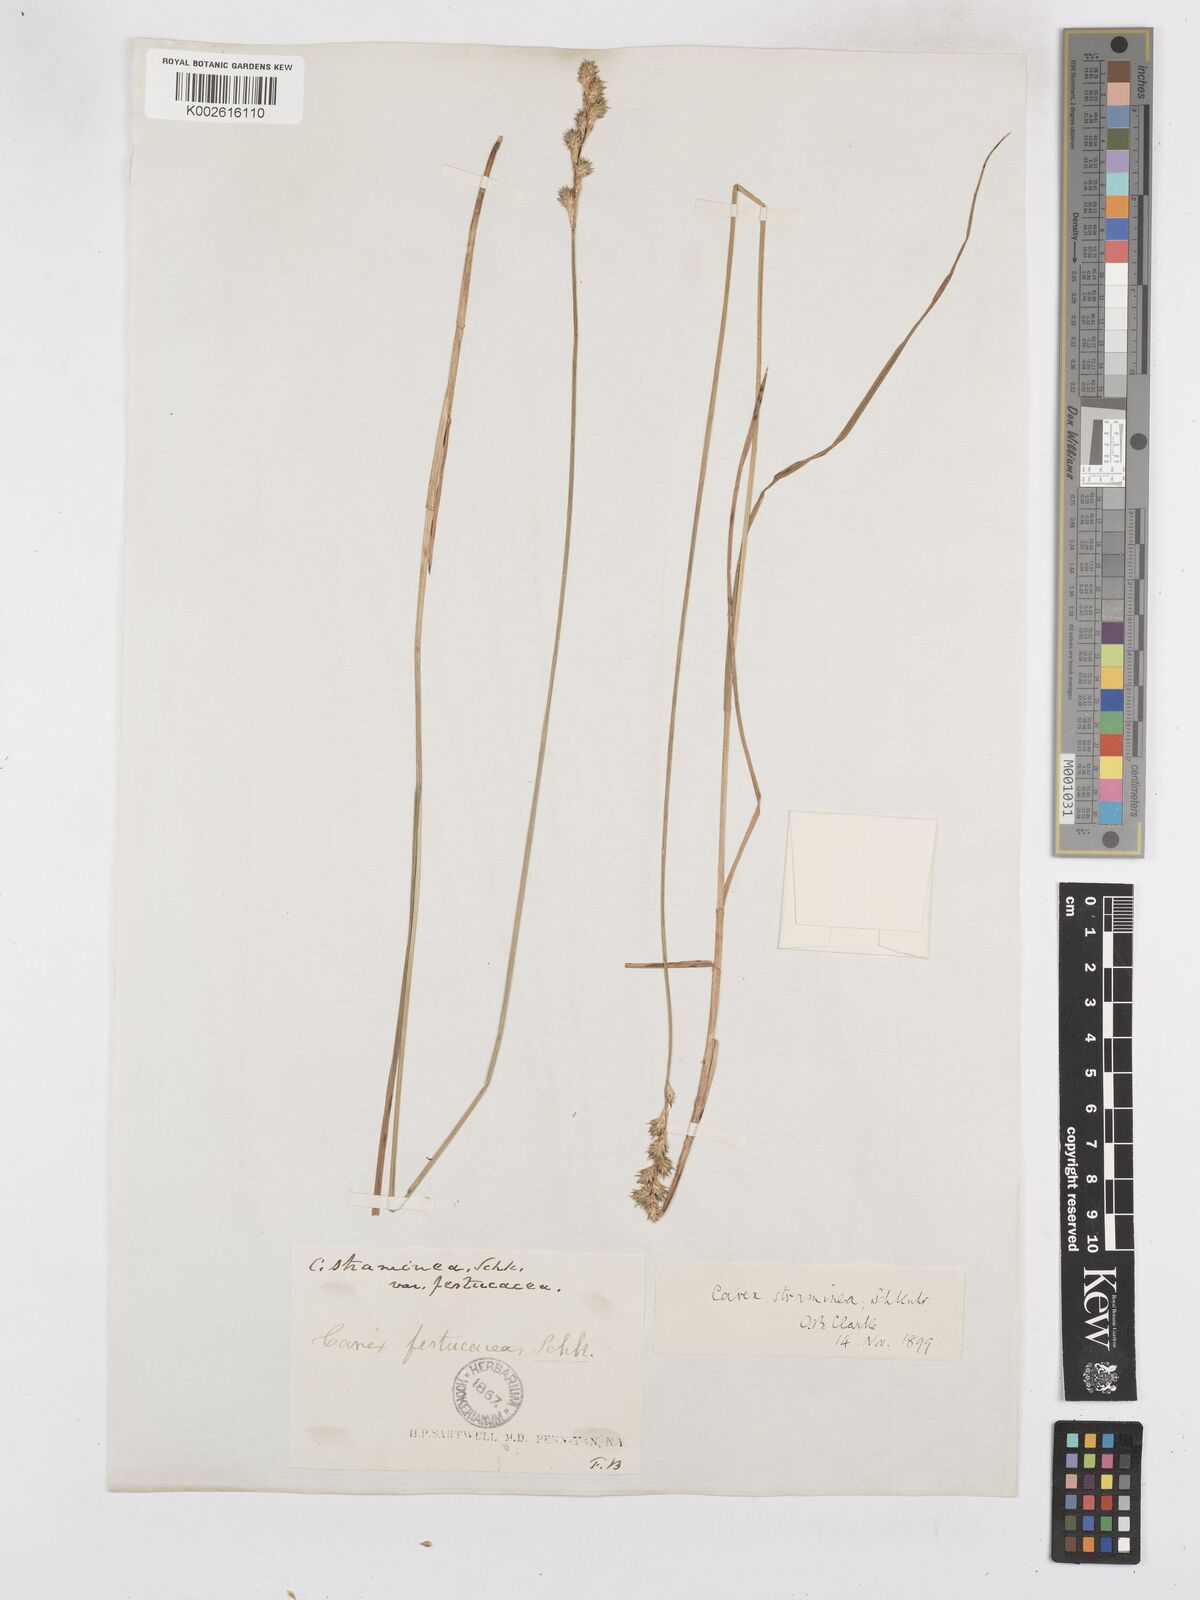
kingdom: Plantae
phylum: Tracheophyta
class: Liliopsida
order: Poales
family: Cyperaceae
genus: Carex
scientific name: Carex brevior
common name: Brevior sedge
